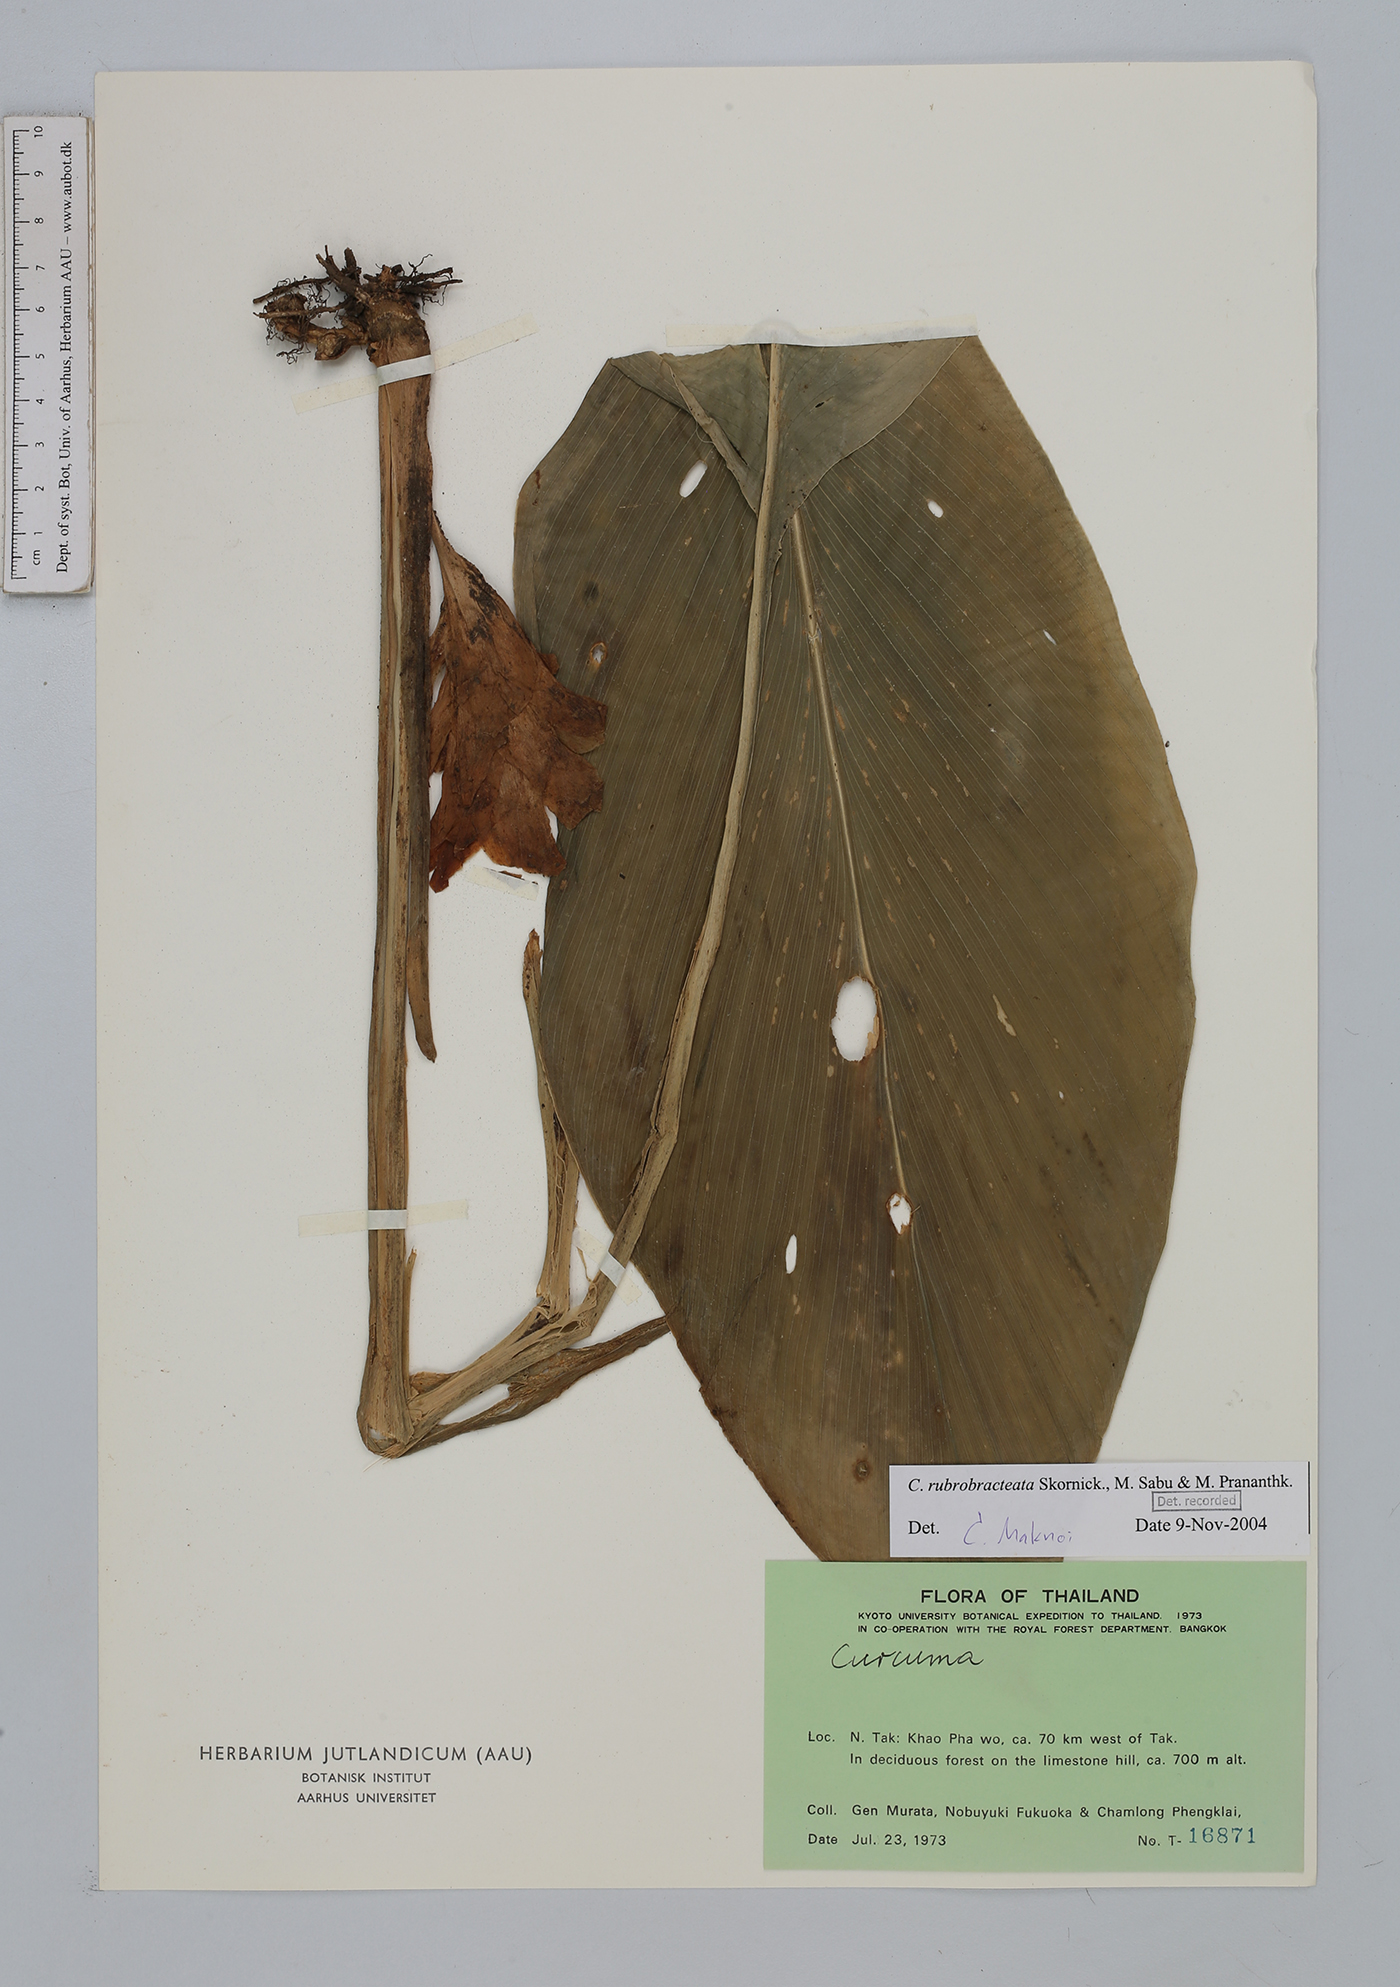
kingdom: Plantae
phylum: Tracheophyta
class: Liliopsida
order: Zingiberales
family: Zingiberaceae
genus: Curcuma
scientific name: Curcuma rubrobracteata
